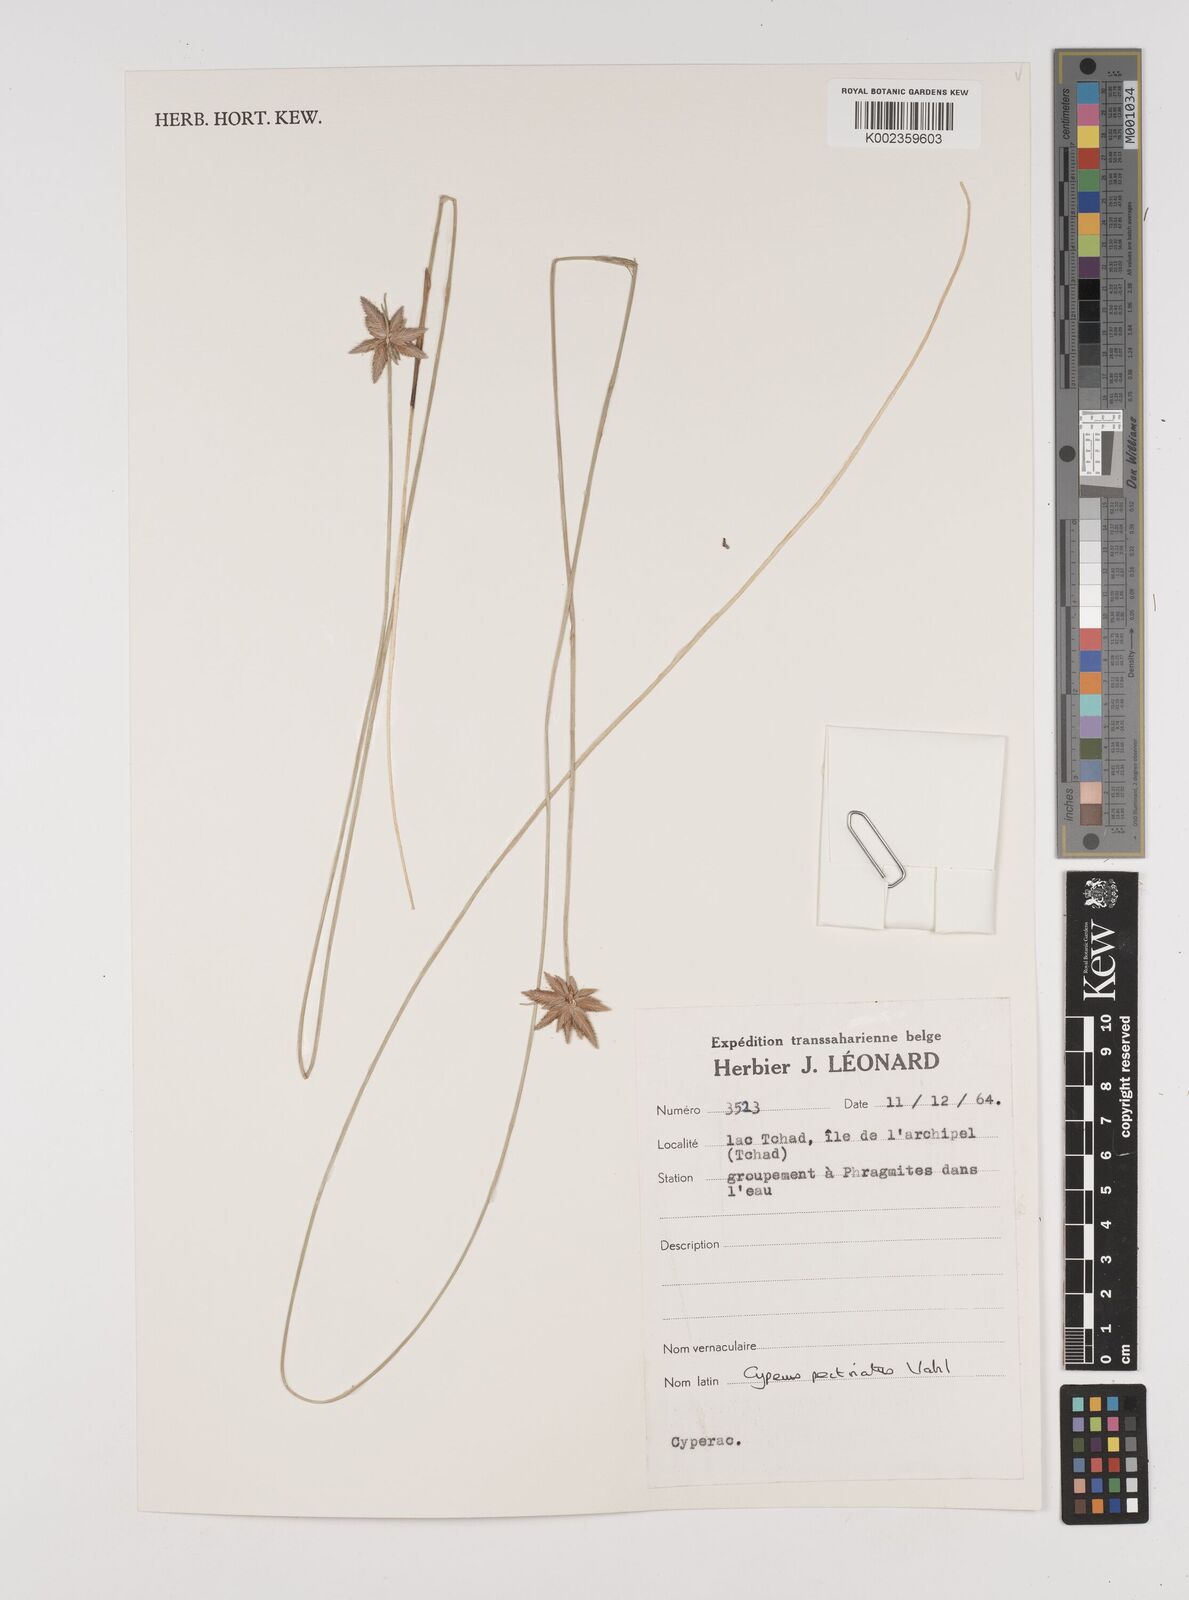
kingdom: Plantae
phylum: Tracheophyta
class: Liliopsida
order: Poales
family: Cyperaceae
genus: Cyperus
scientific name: Cyperus pectinatus
